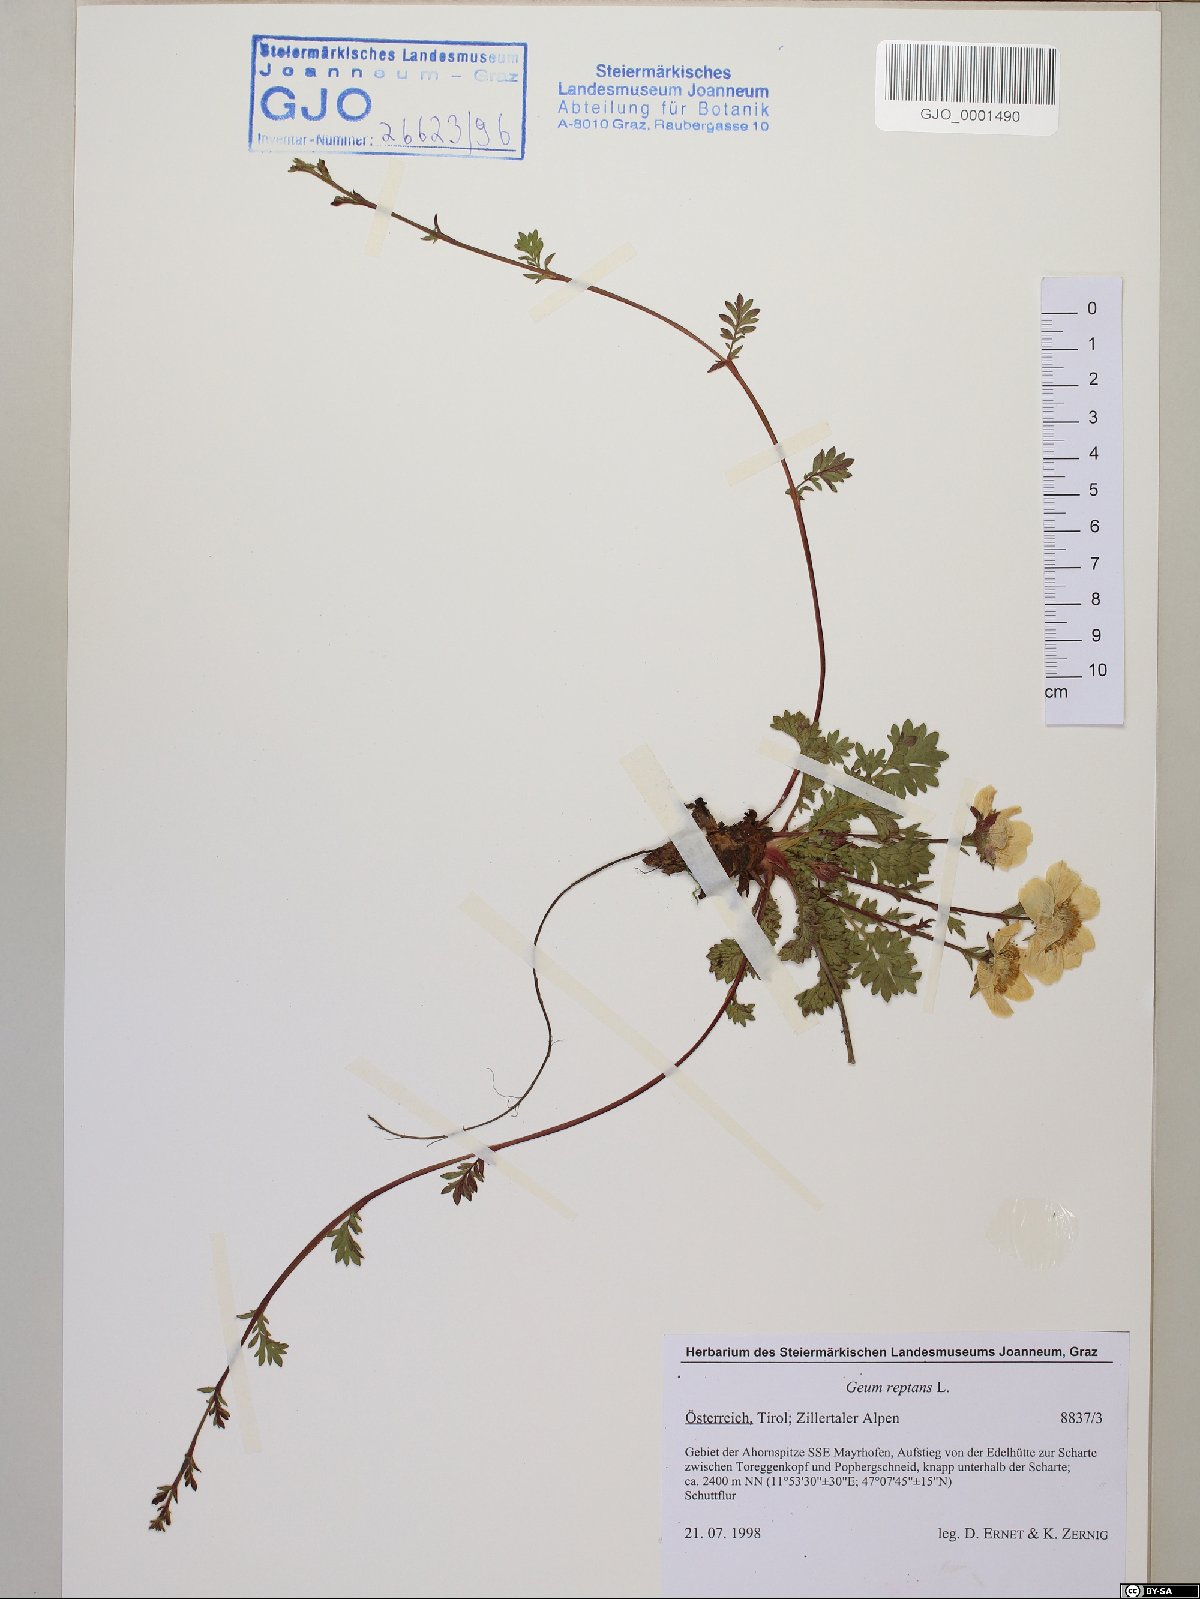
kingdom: Plantae
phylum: Tracheophyta
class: Magnoliopsida
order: Rosales
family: Rosaceae
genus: Geum
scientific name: Geum reptans
